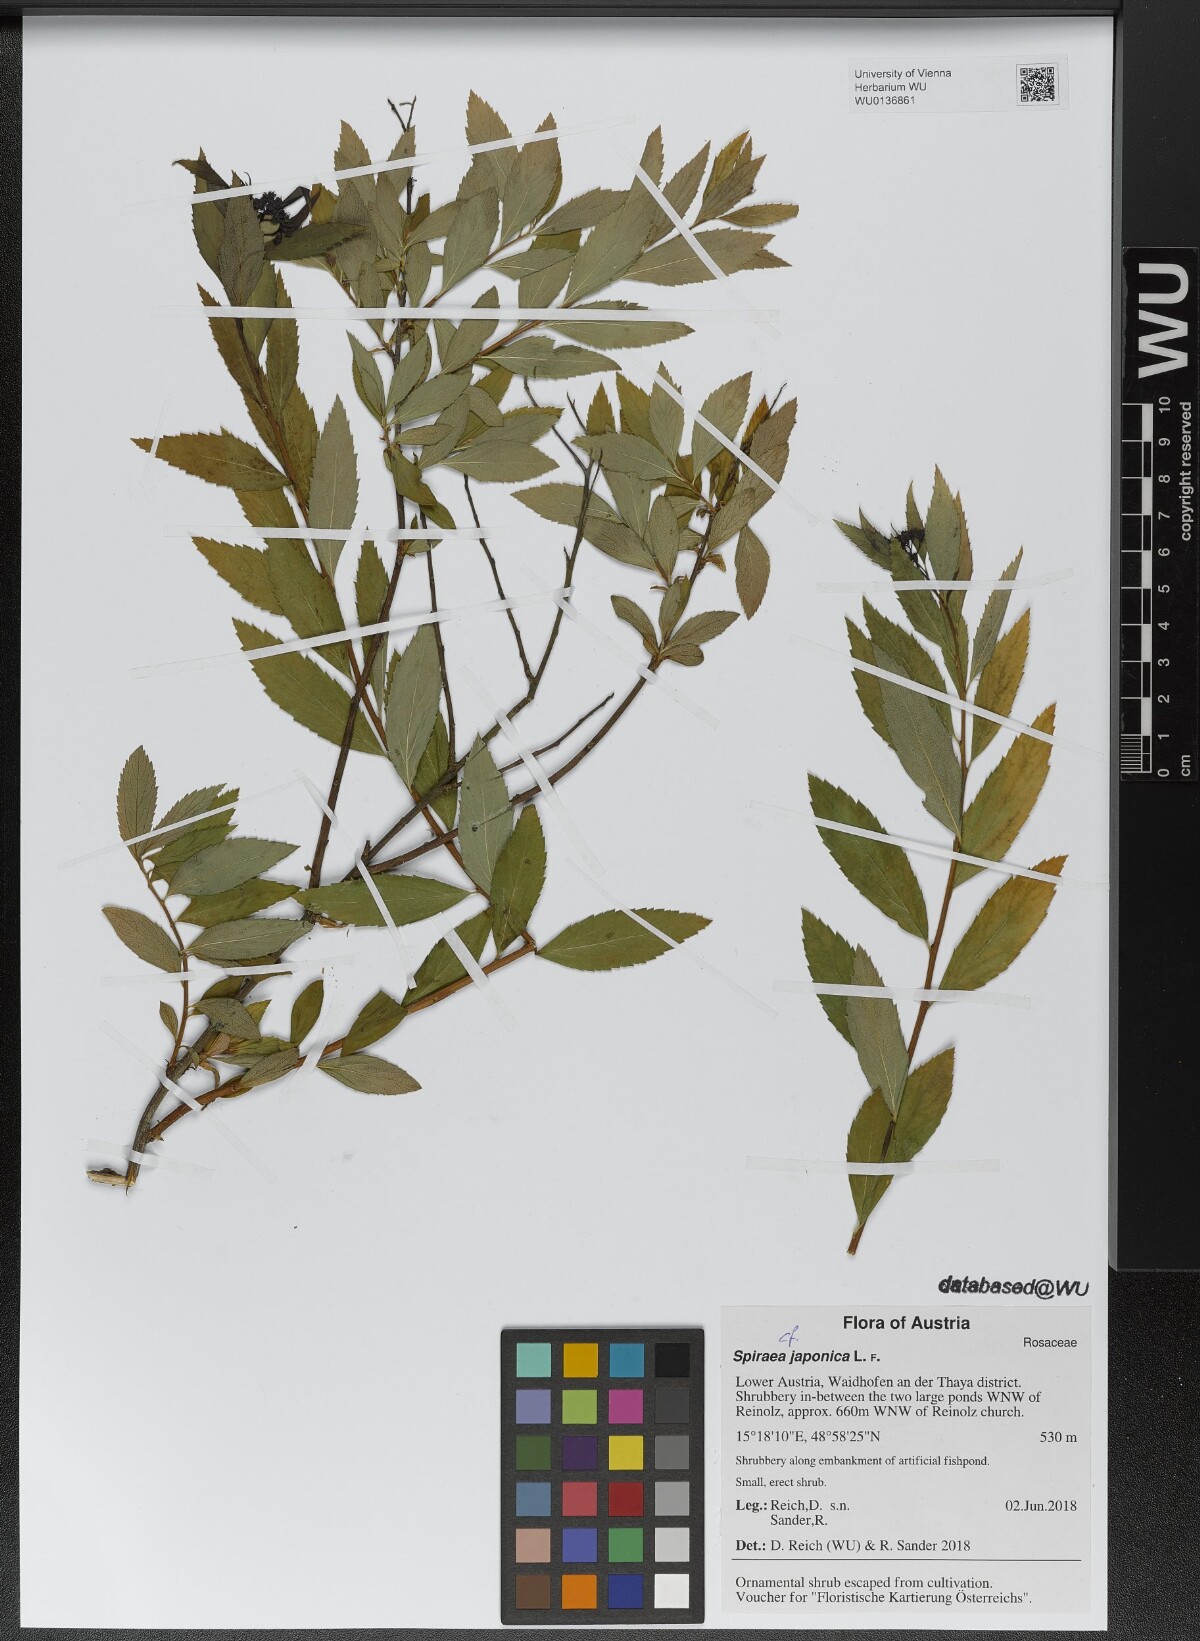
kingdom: Plantae
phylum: Tracheophyta
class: Magnoliopsida
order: Rosales
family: Rosaceae
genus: Spiraea
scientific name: Spiraea japonica
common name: Japanese spiraea
